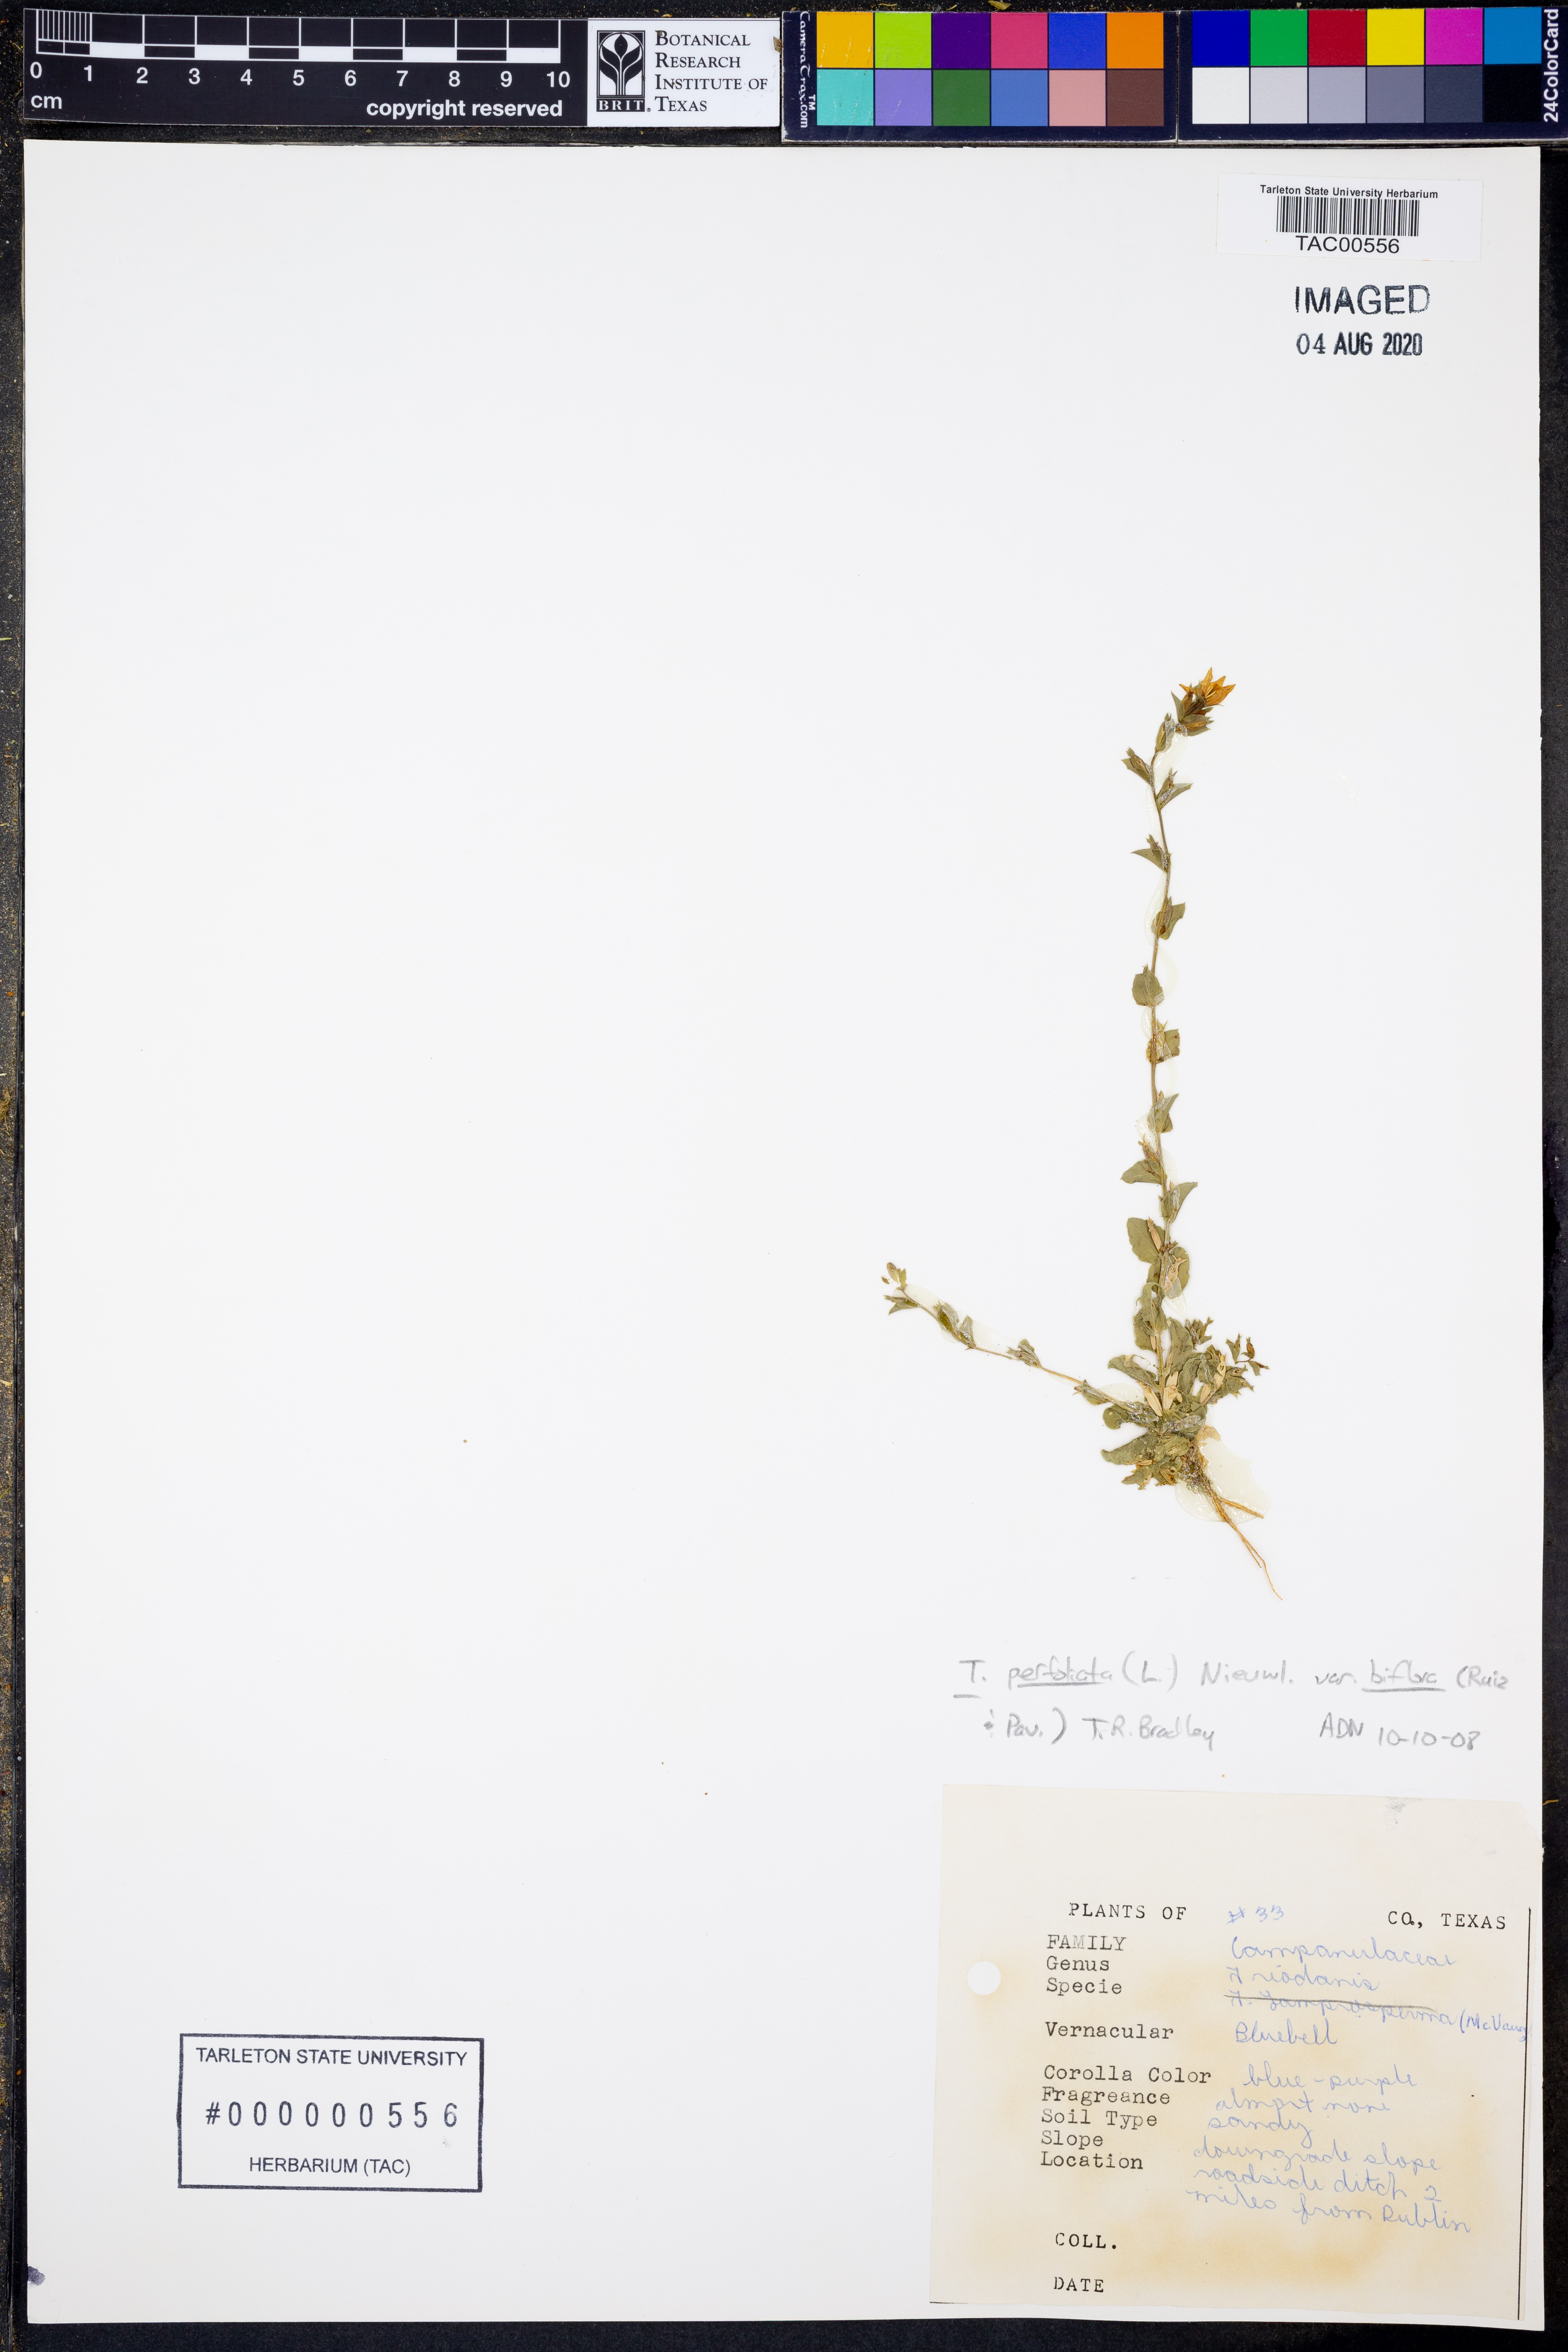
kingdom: Plantae
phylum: Tracheophyta
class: Magnoliopsida
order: Asterales
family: Campanulaceae
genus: Triodanis
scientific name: Triodanis perfoliata
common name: Clasping venus' looking-glass
